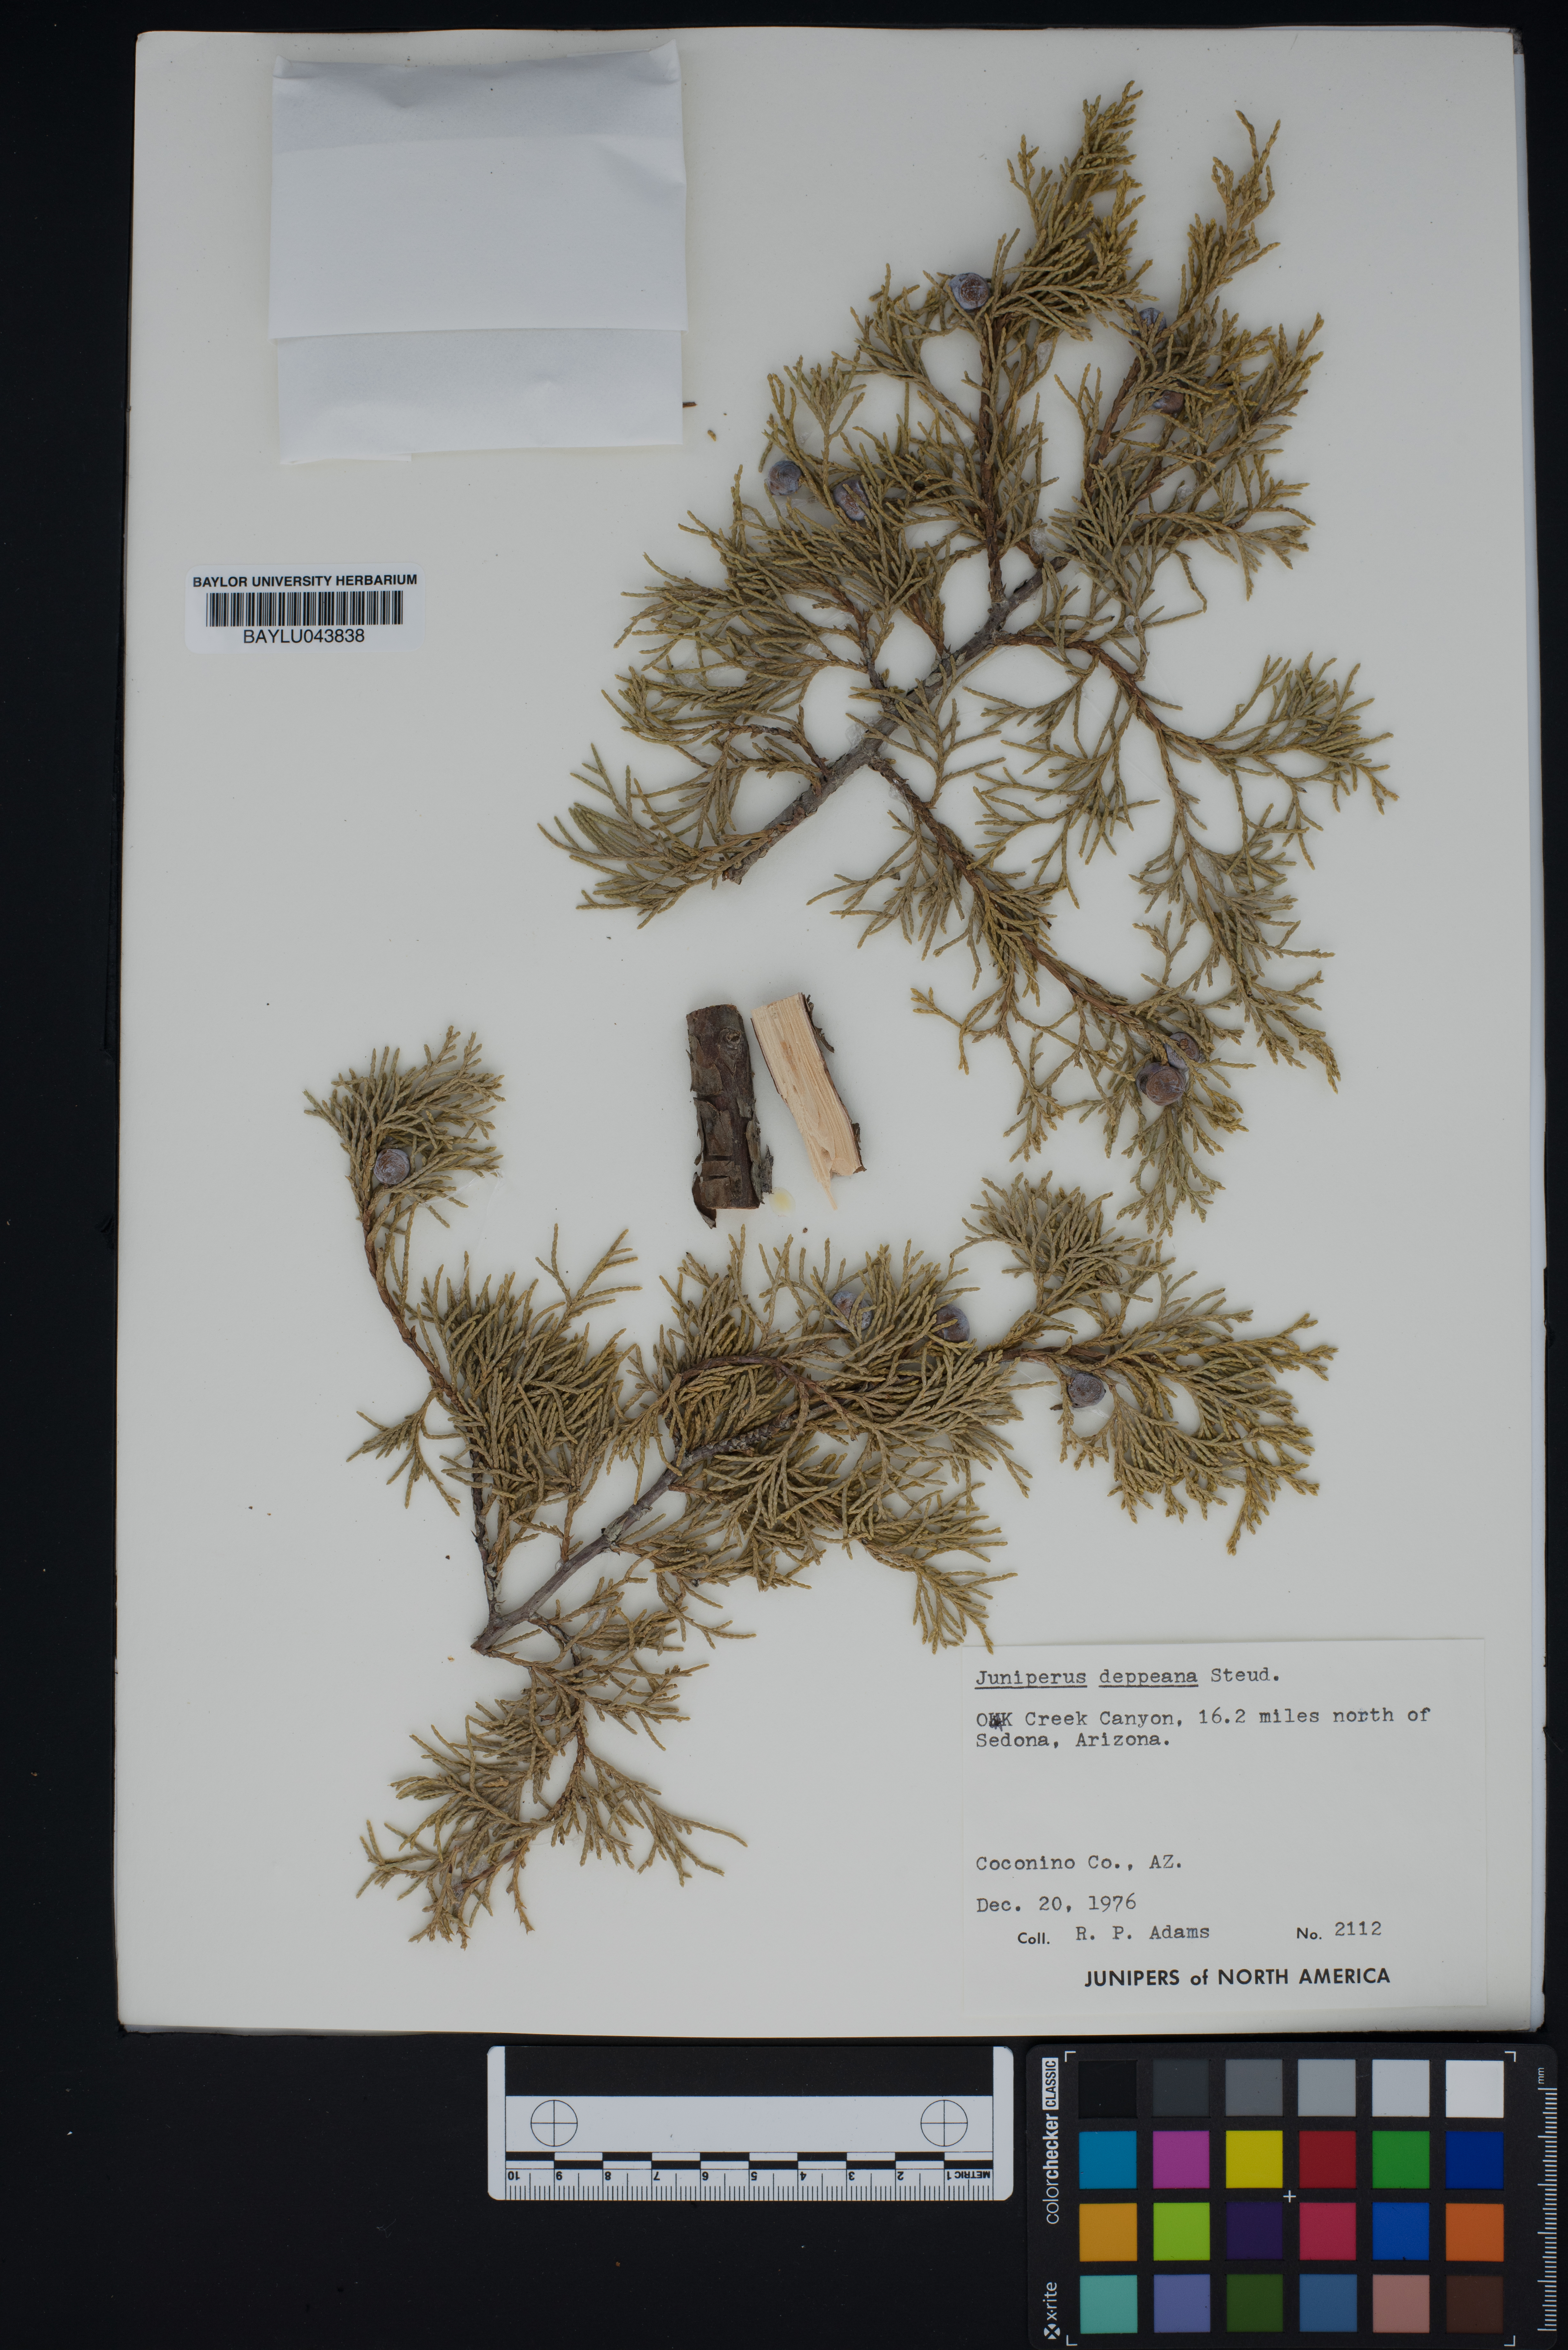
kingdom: Plantae
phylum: Tracheophyta
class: Pinopsida
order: Pinales
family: Cupressaceae
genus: Juniperus
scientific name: Juniperus deppeana
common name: Alligator juniper
